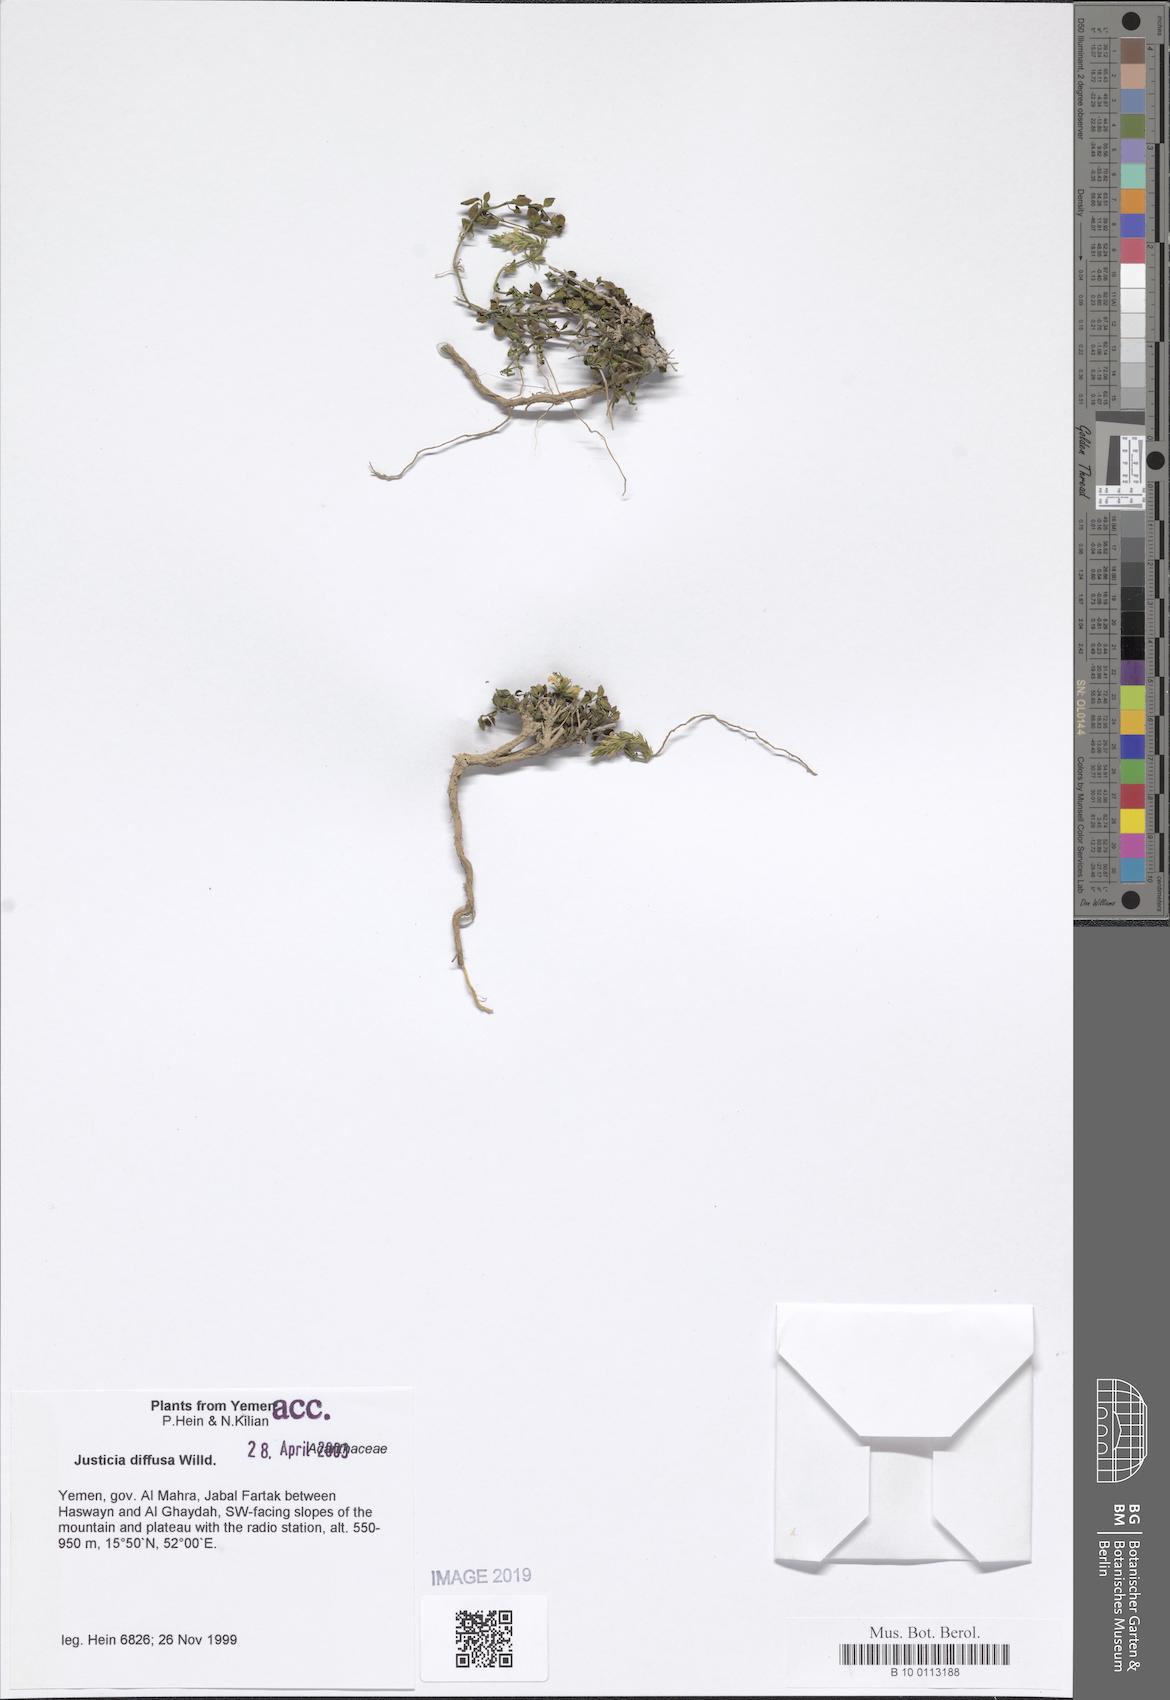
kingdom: Plantae
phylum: Tracheophyta
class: Magnoliopsida
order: Lamiales
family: Acanthaceae
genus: Rostellularia
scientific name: Rostellularia diffusa
